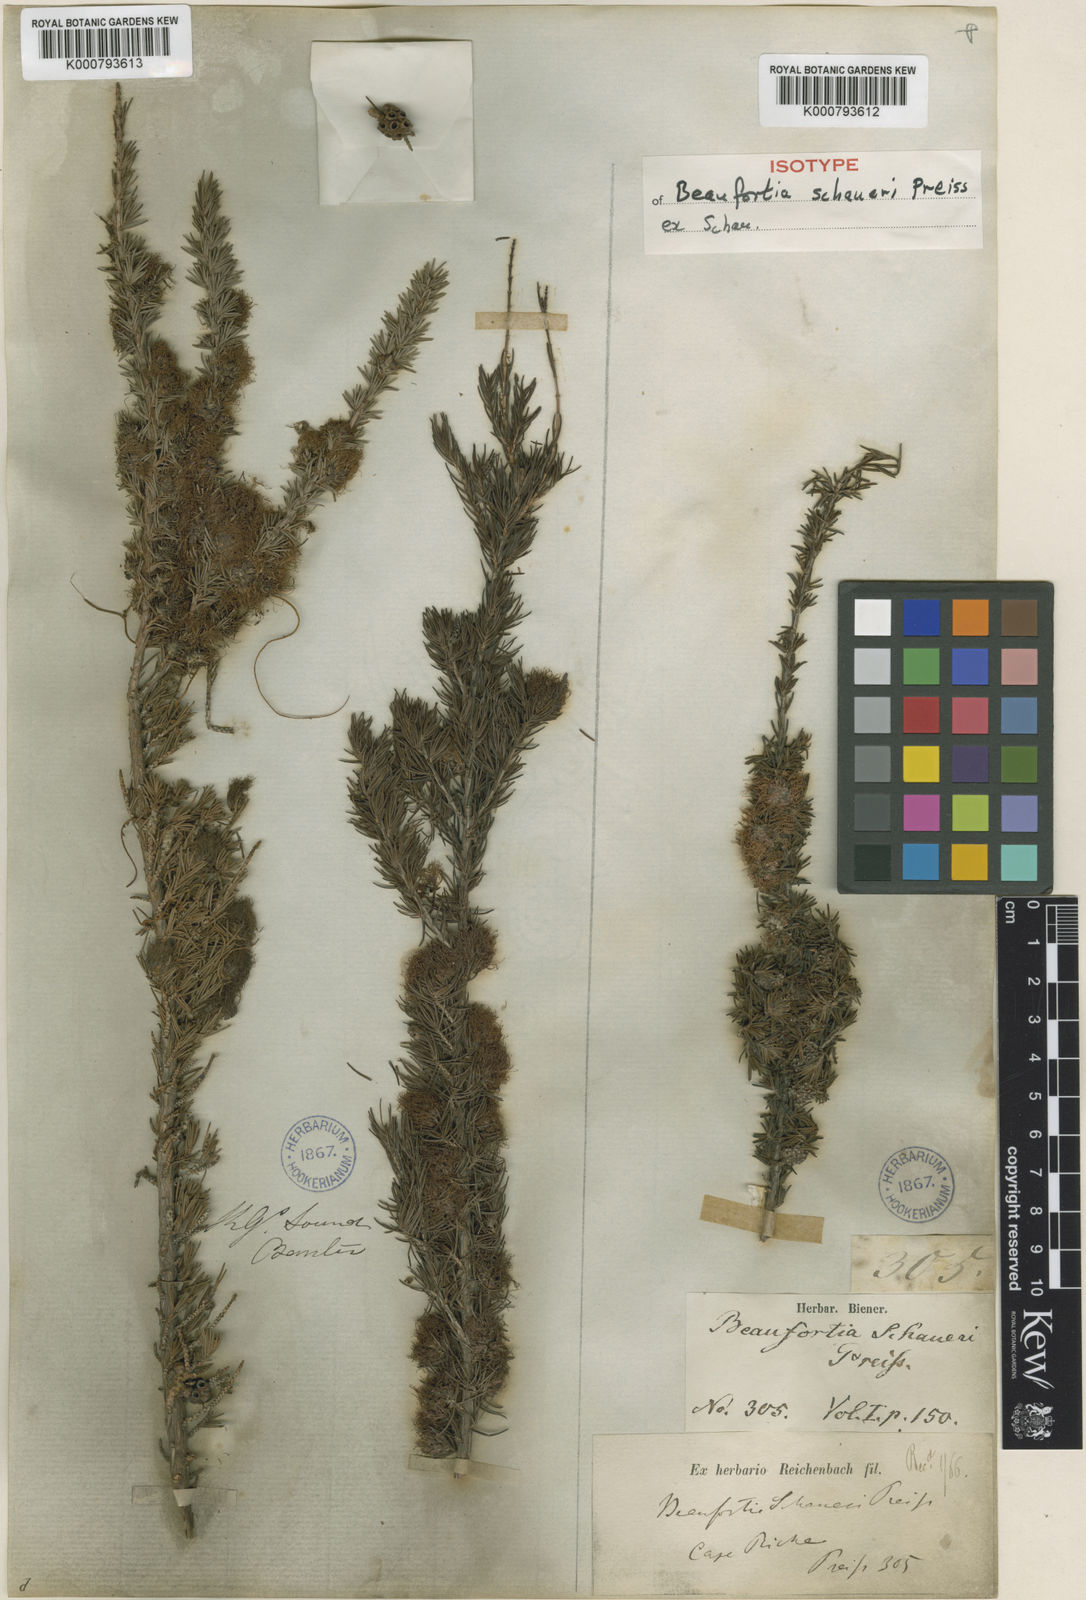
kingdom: Plantae
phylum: Tracheophyta
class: Magnoliopsida
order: Myrtales
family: Myrtaceae
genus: Melaleuca
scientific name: Melaleuca jonesii
